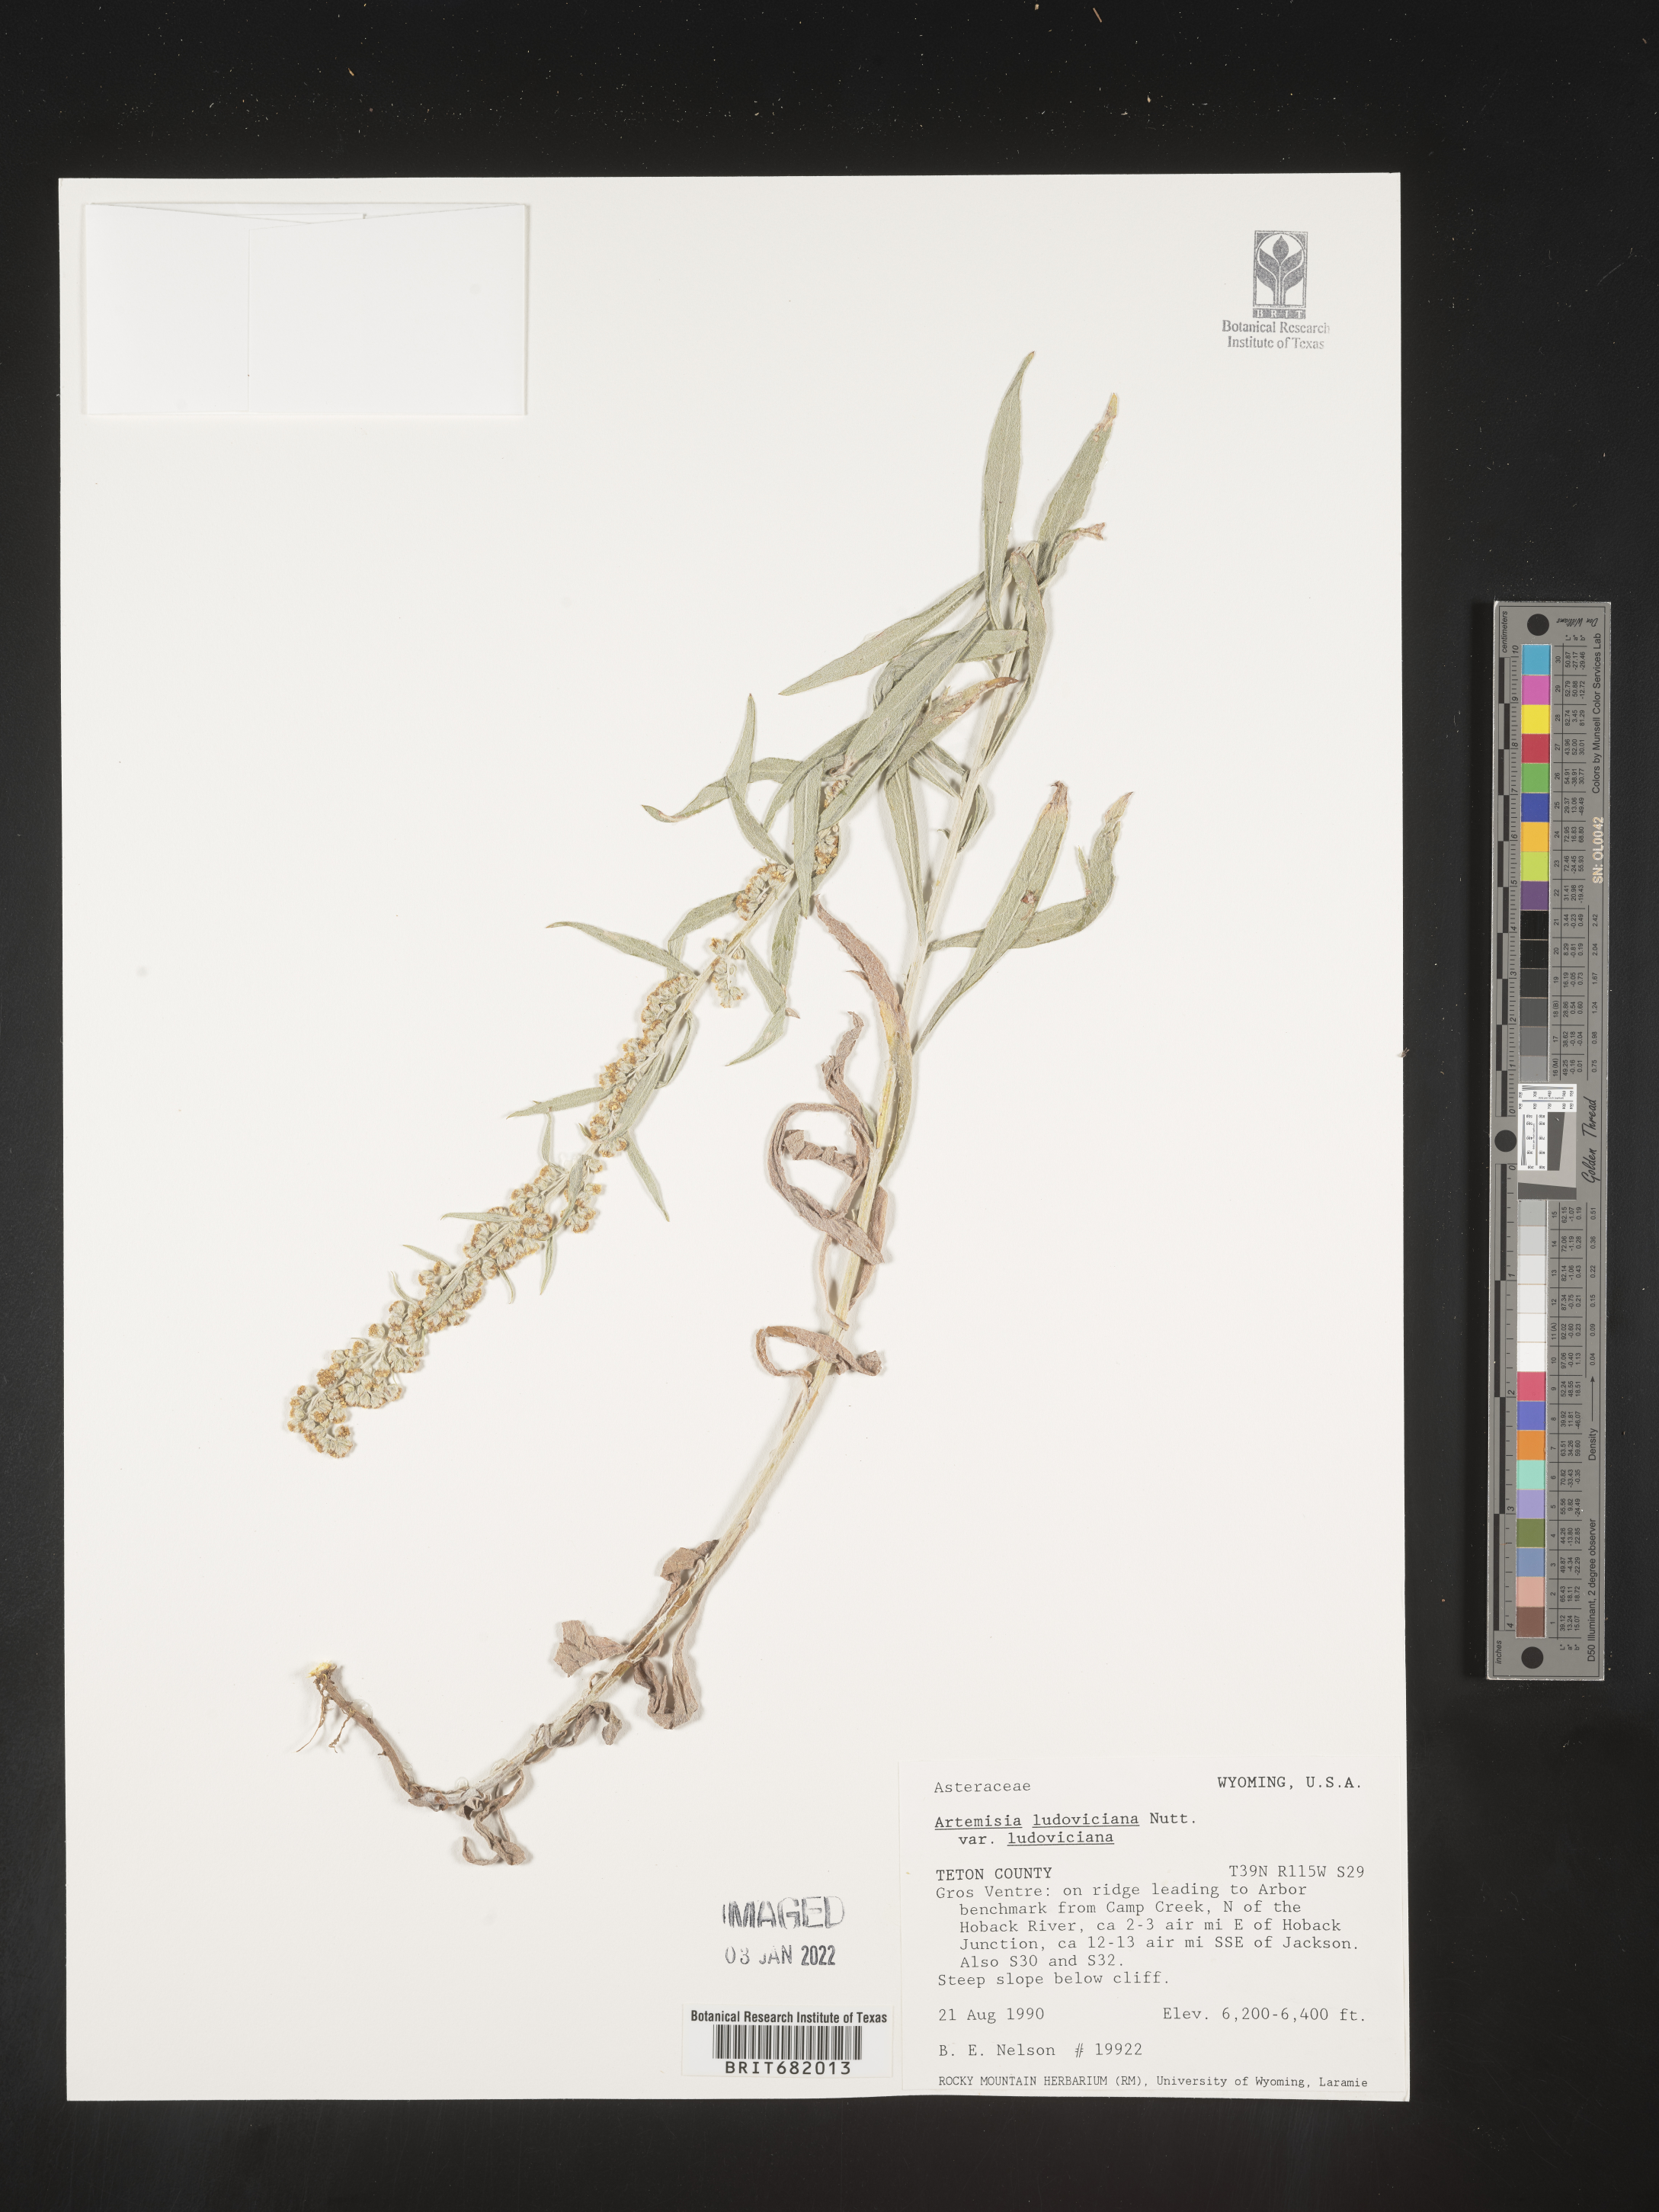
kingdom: Plantae
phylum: Tracheophyta
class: Magnoliopsida
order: Asterales
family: Asteraceae
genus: Artemisia
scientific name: Artemisia ludoviciana
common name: Western mugwort
